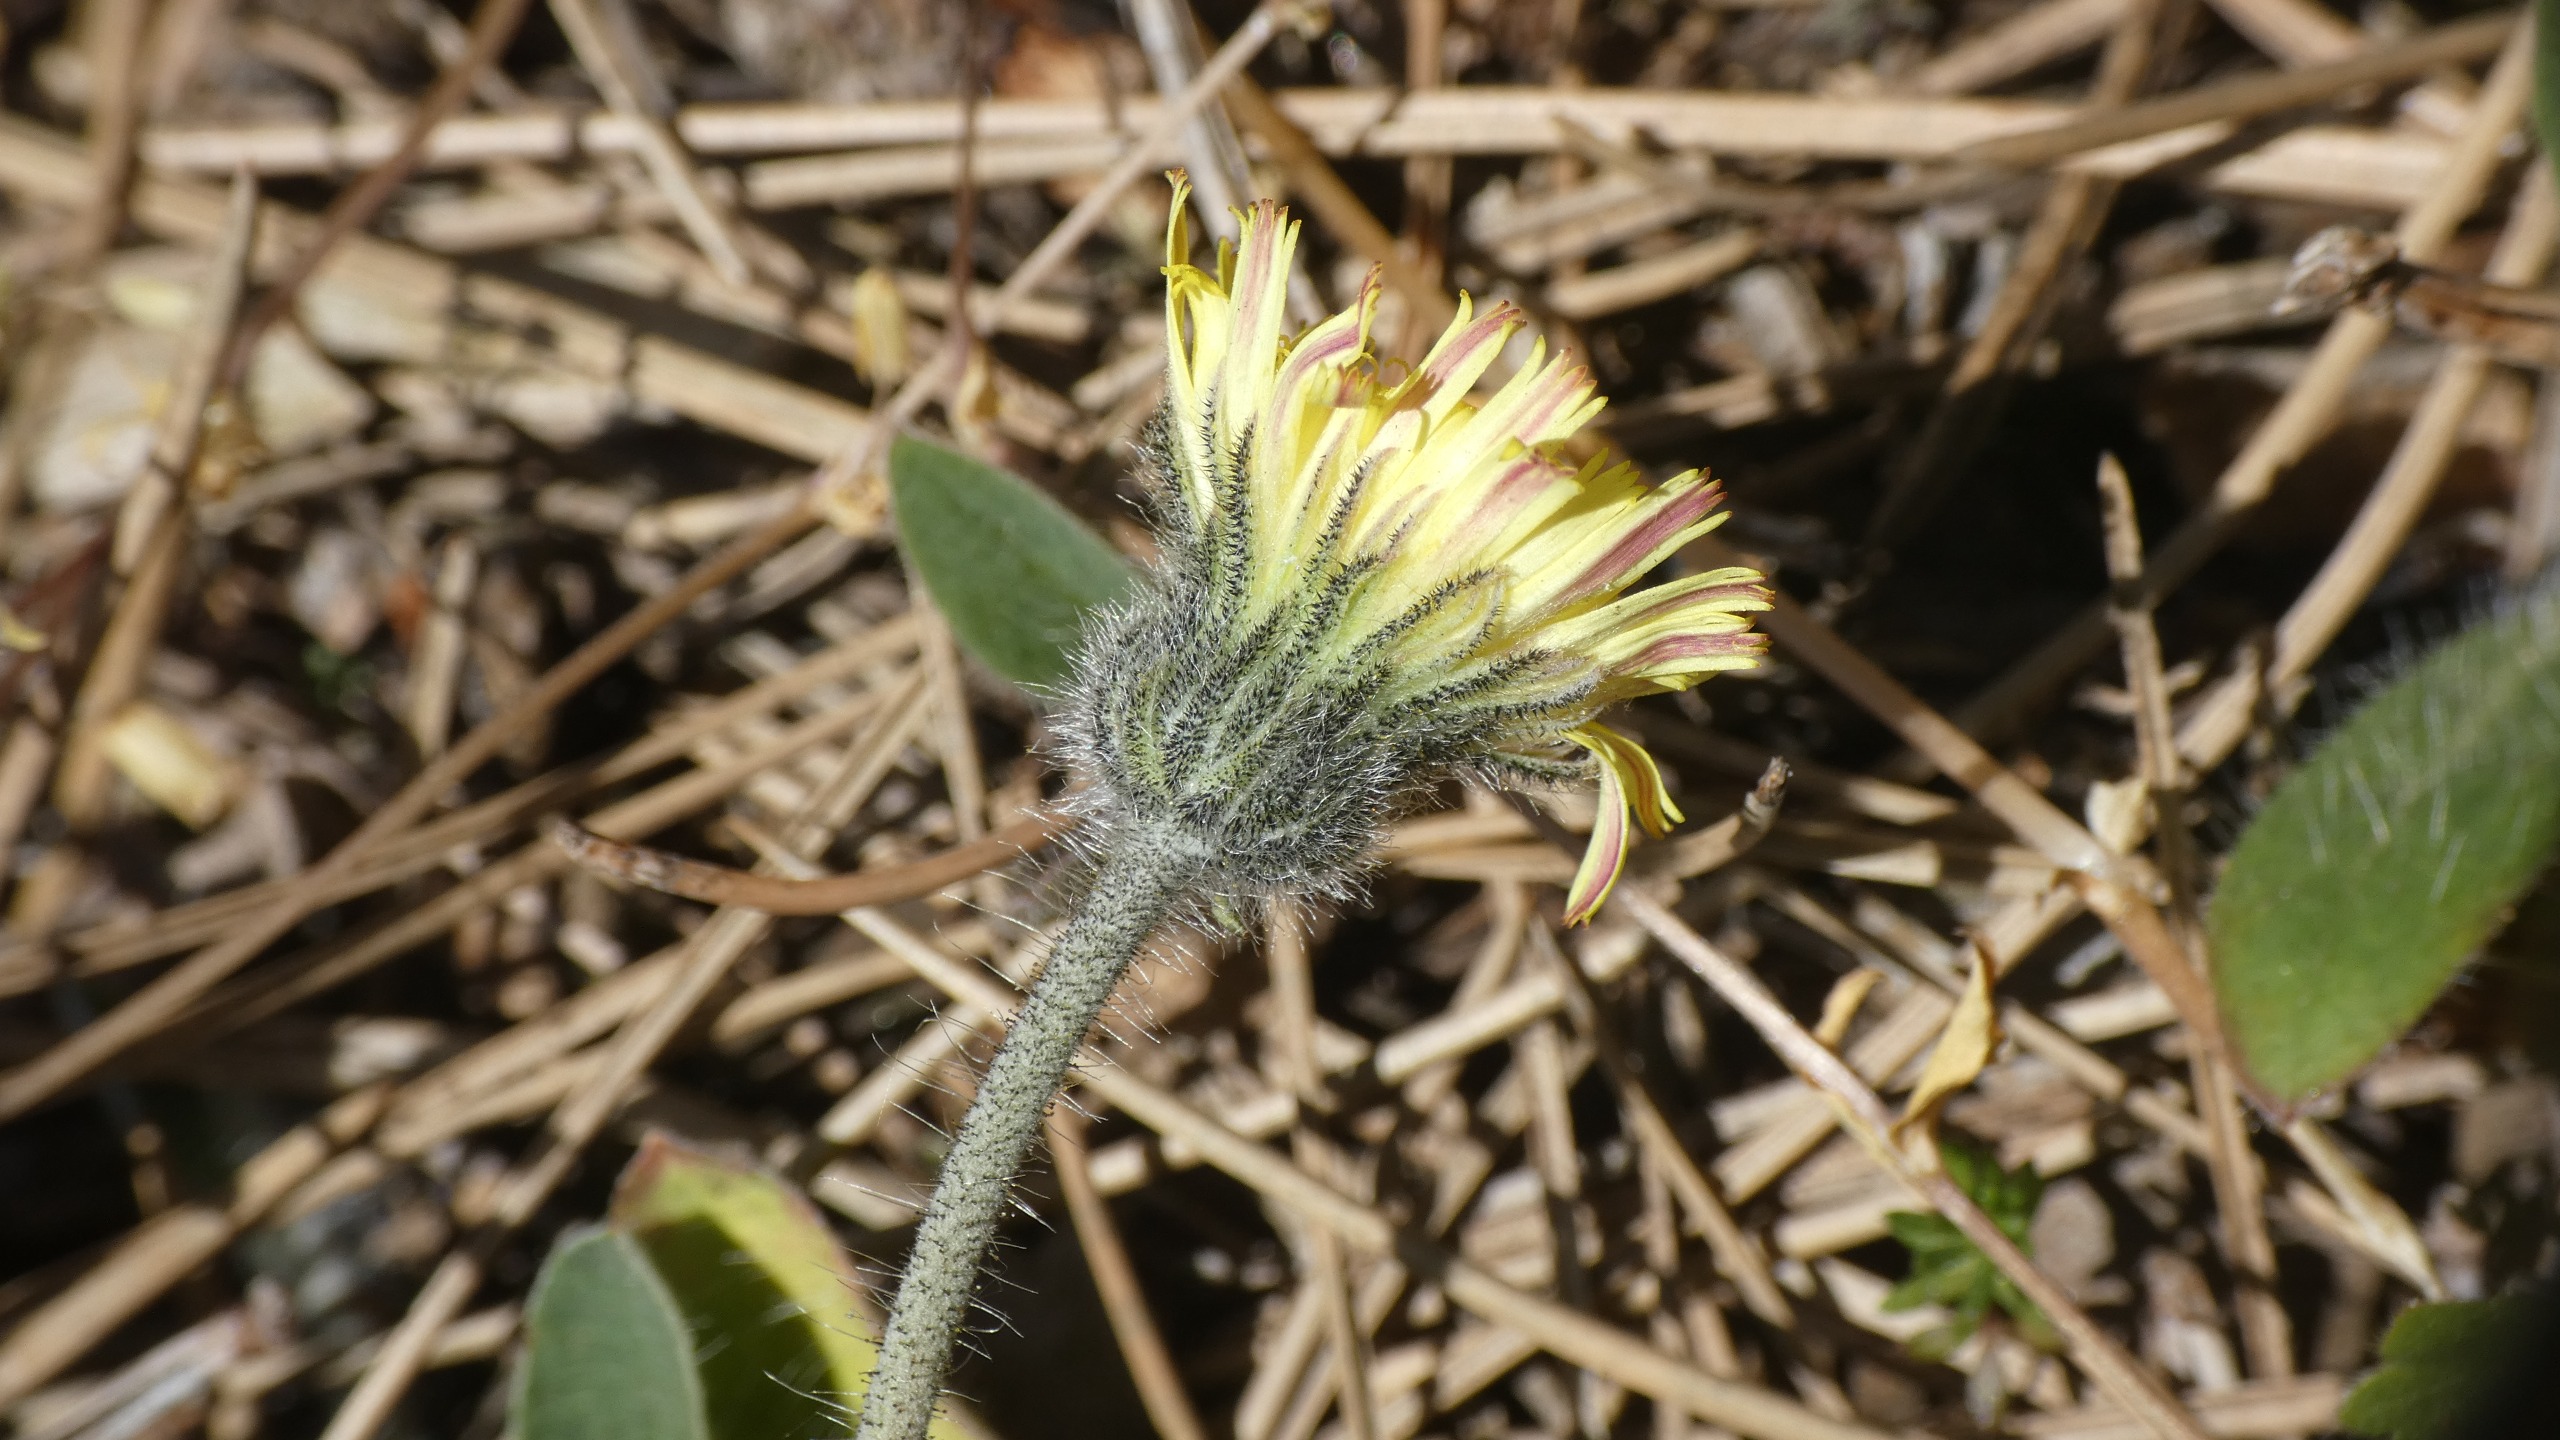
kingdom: Plantae
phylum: Tracheophyta
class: Magnoliopsida
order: Asterales
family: Asteraceae
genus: Pilosella
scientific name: Pilosella officinarum
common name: Håret høgeurt
